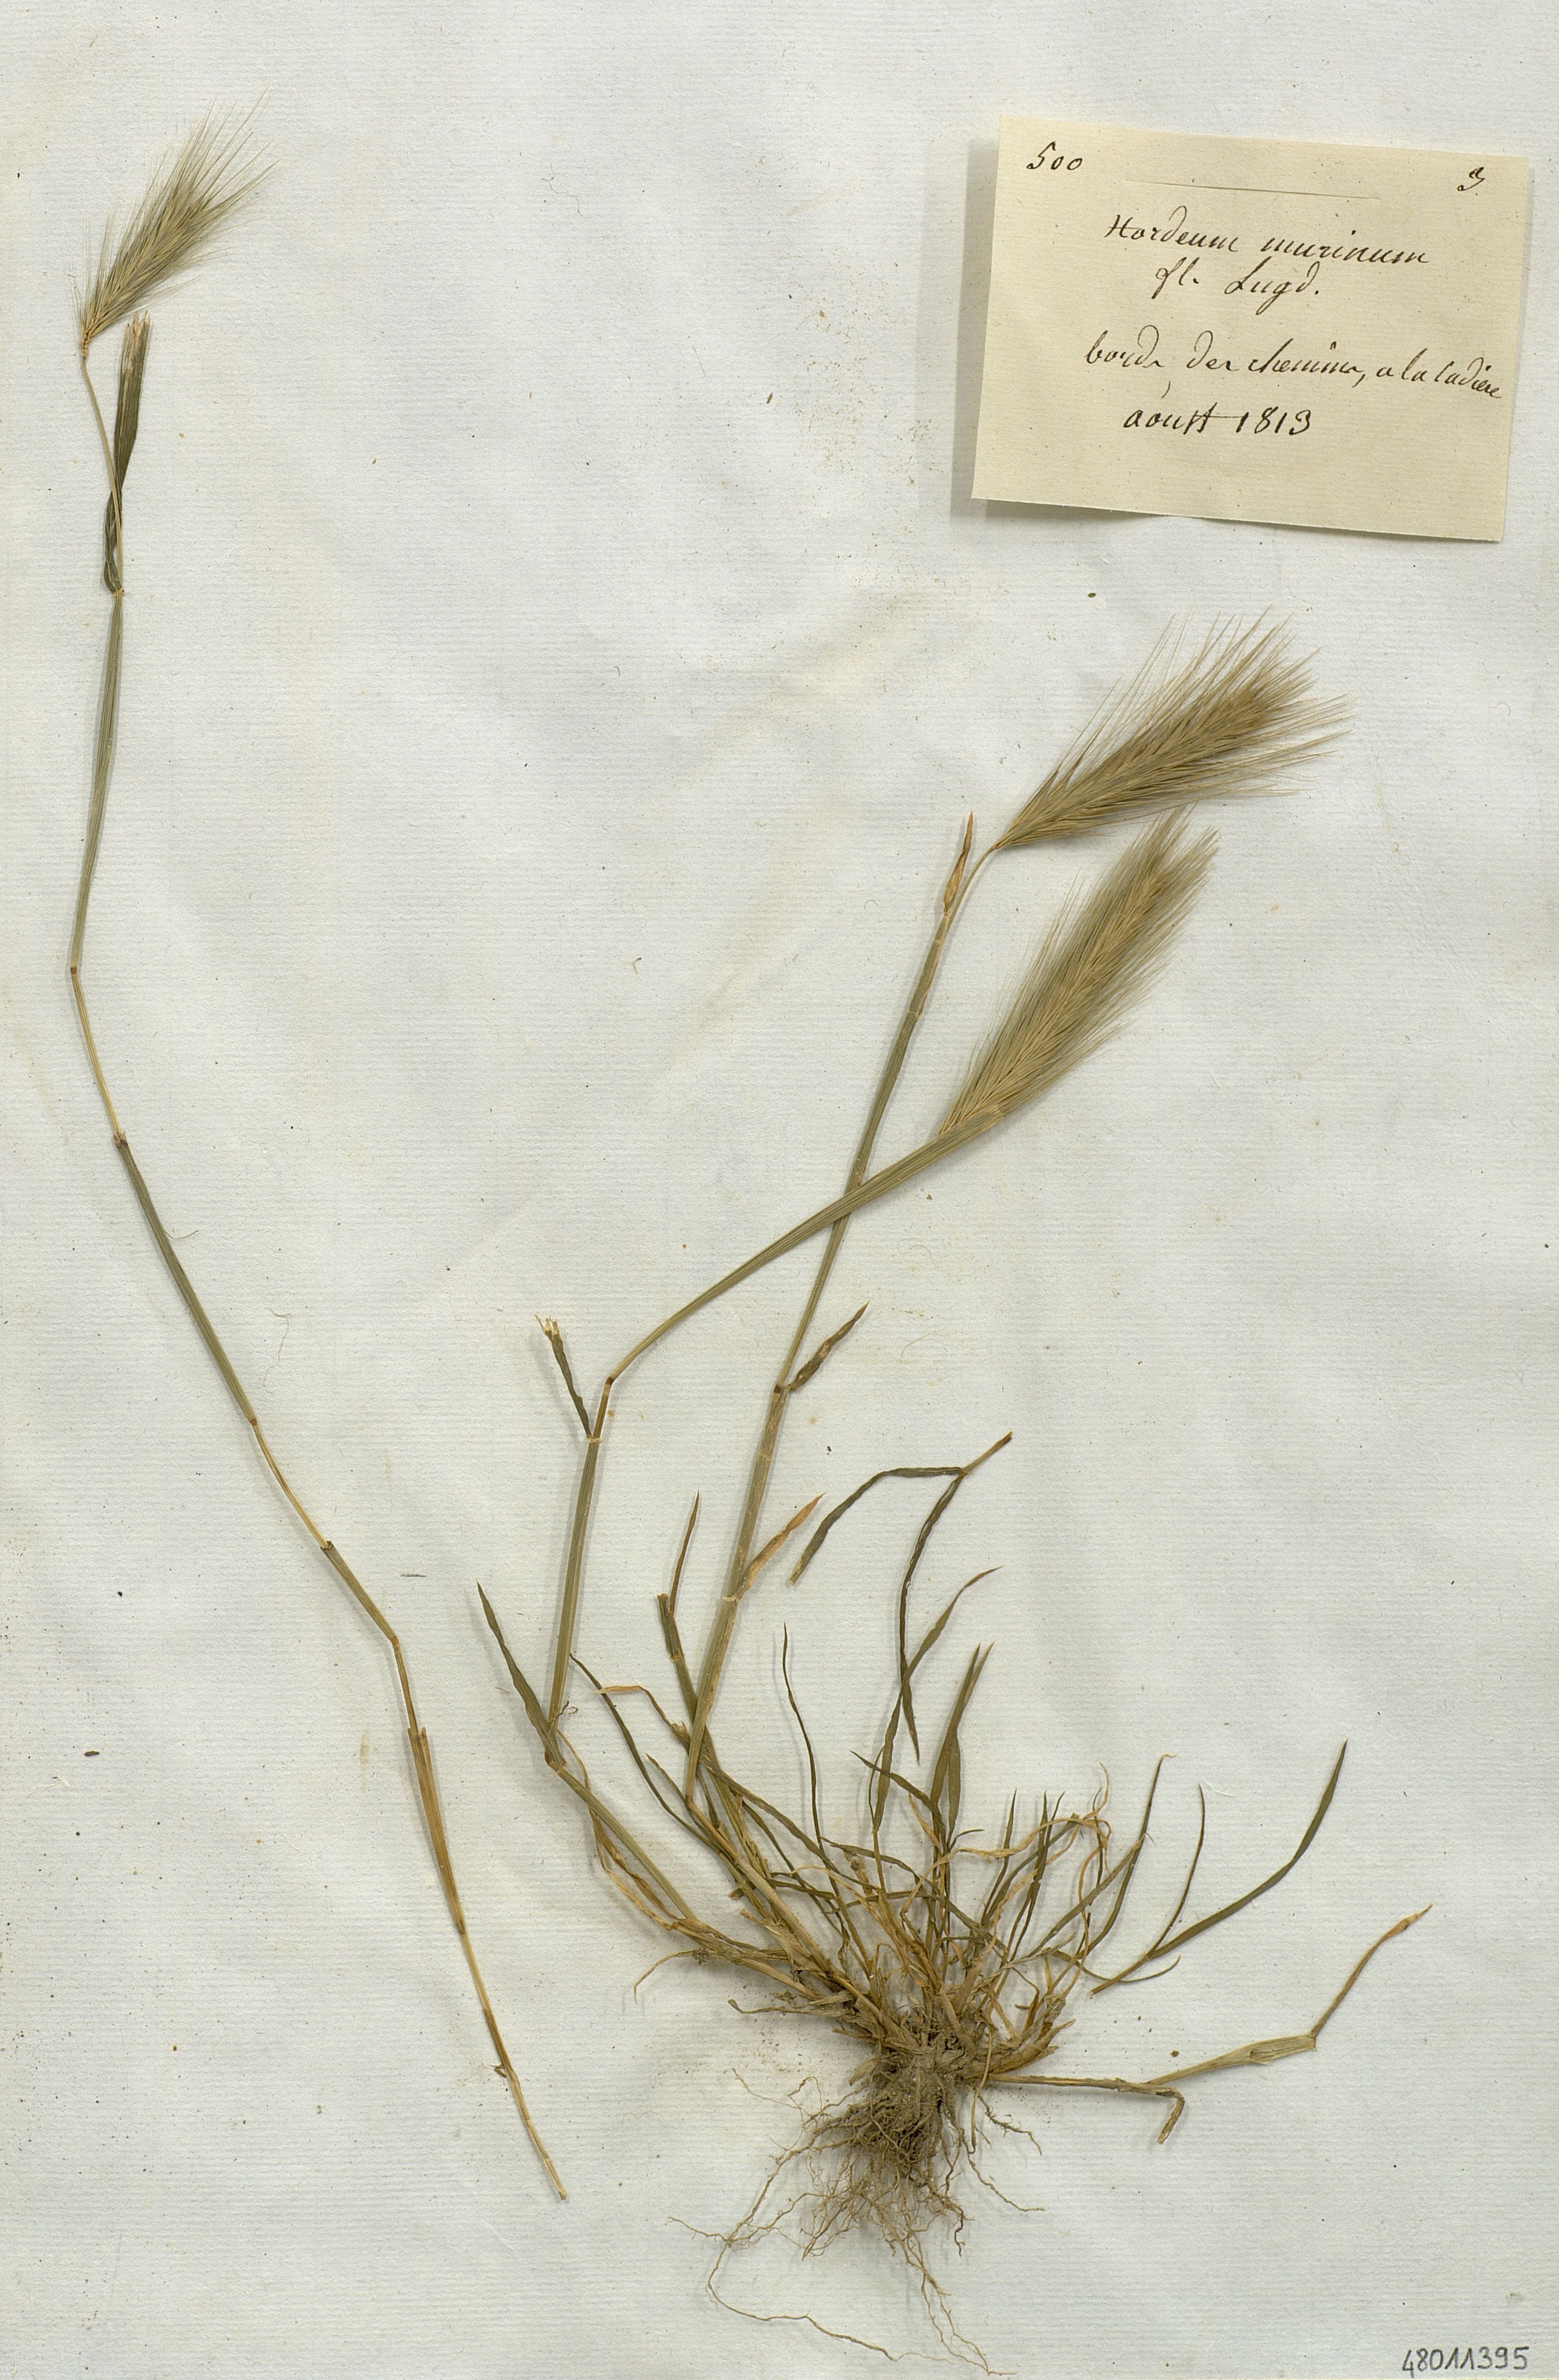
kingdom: Plantae
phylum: Tracheophyta
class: Liliopsida
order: Poales
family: Poaceae
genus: Hordeum
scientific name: Hordeum murinum
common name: Wall barley
